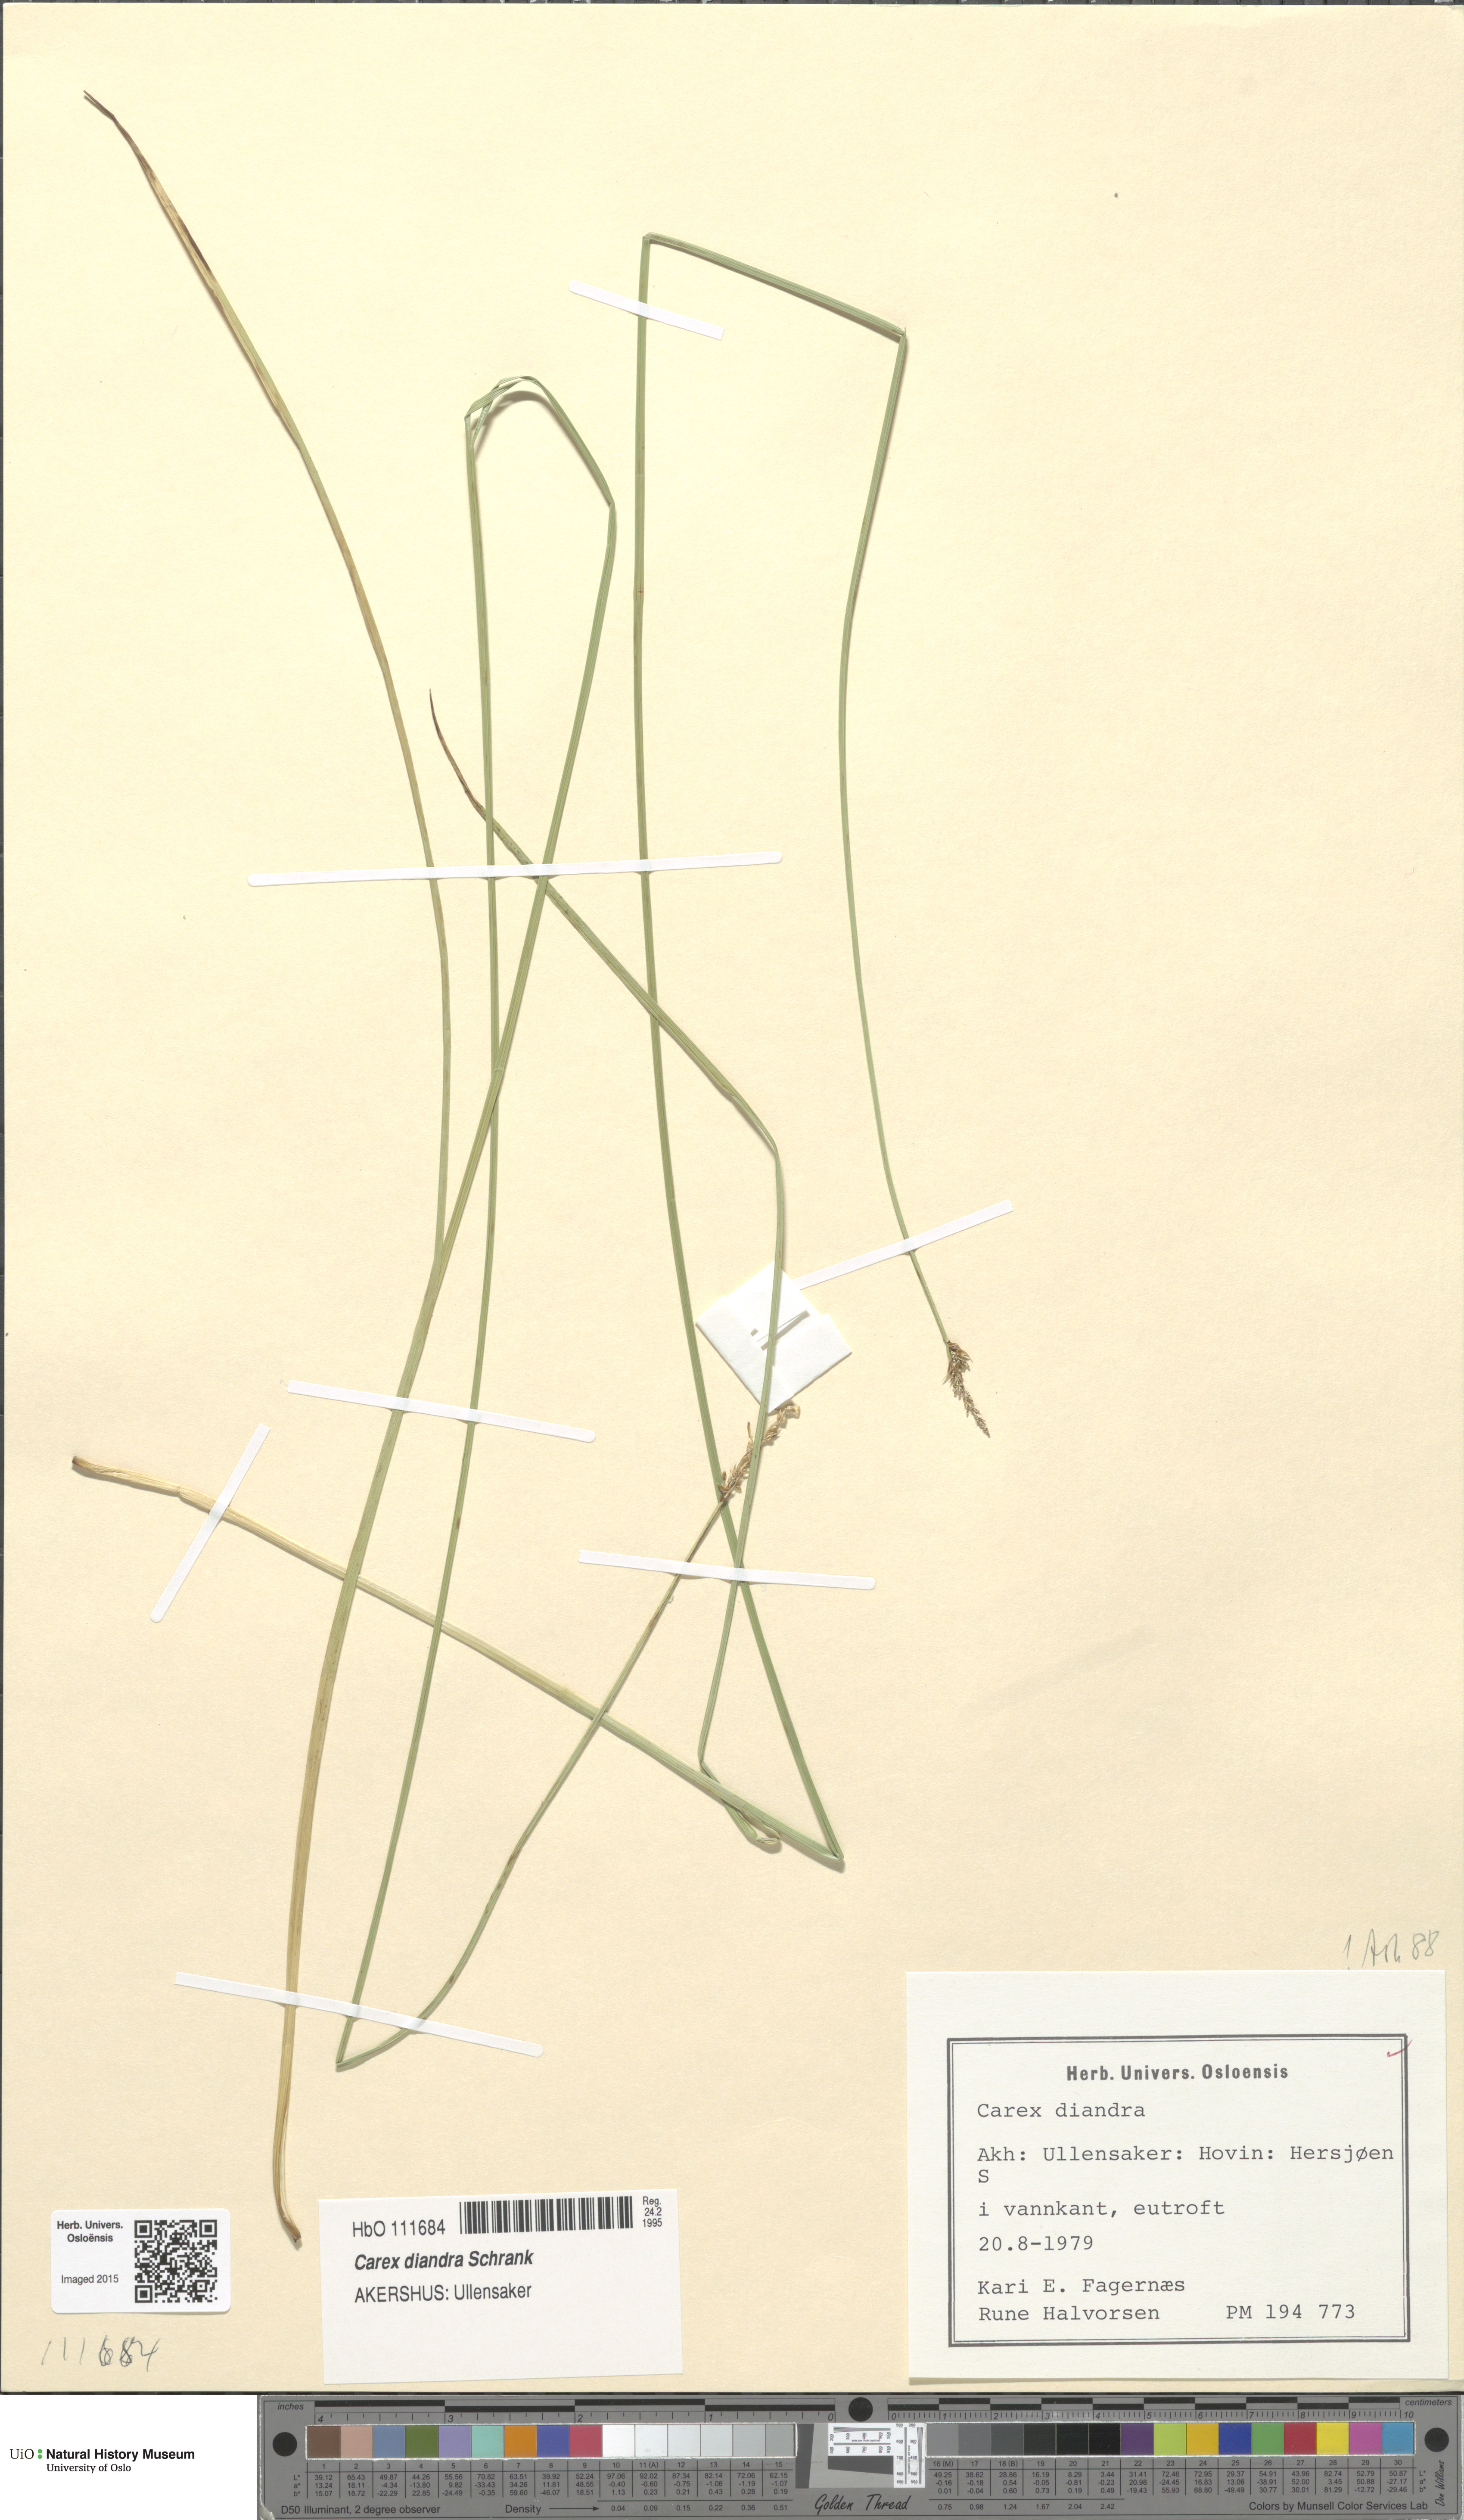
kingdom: Plantae
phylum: Tracheophyta
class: Liliopsida
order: Poales
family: Cyperaceae
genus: Carex
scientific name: Carex diandra
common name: Lesser tussock-sedge
